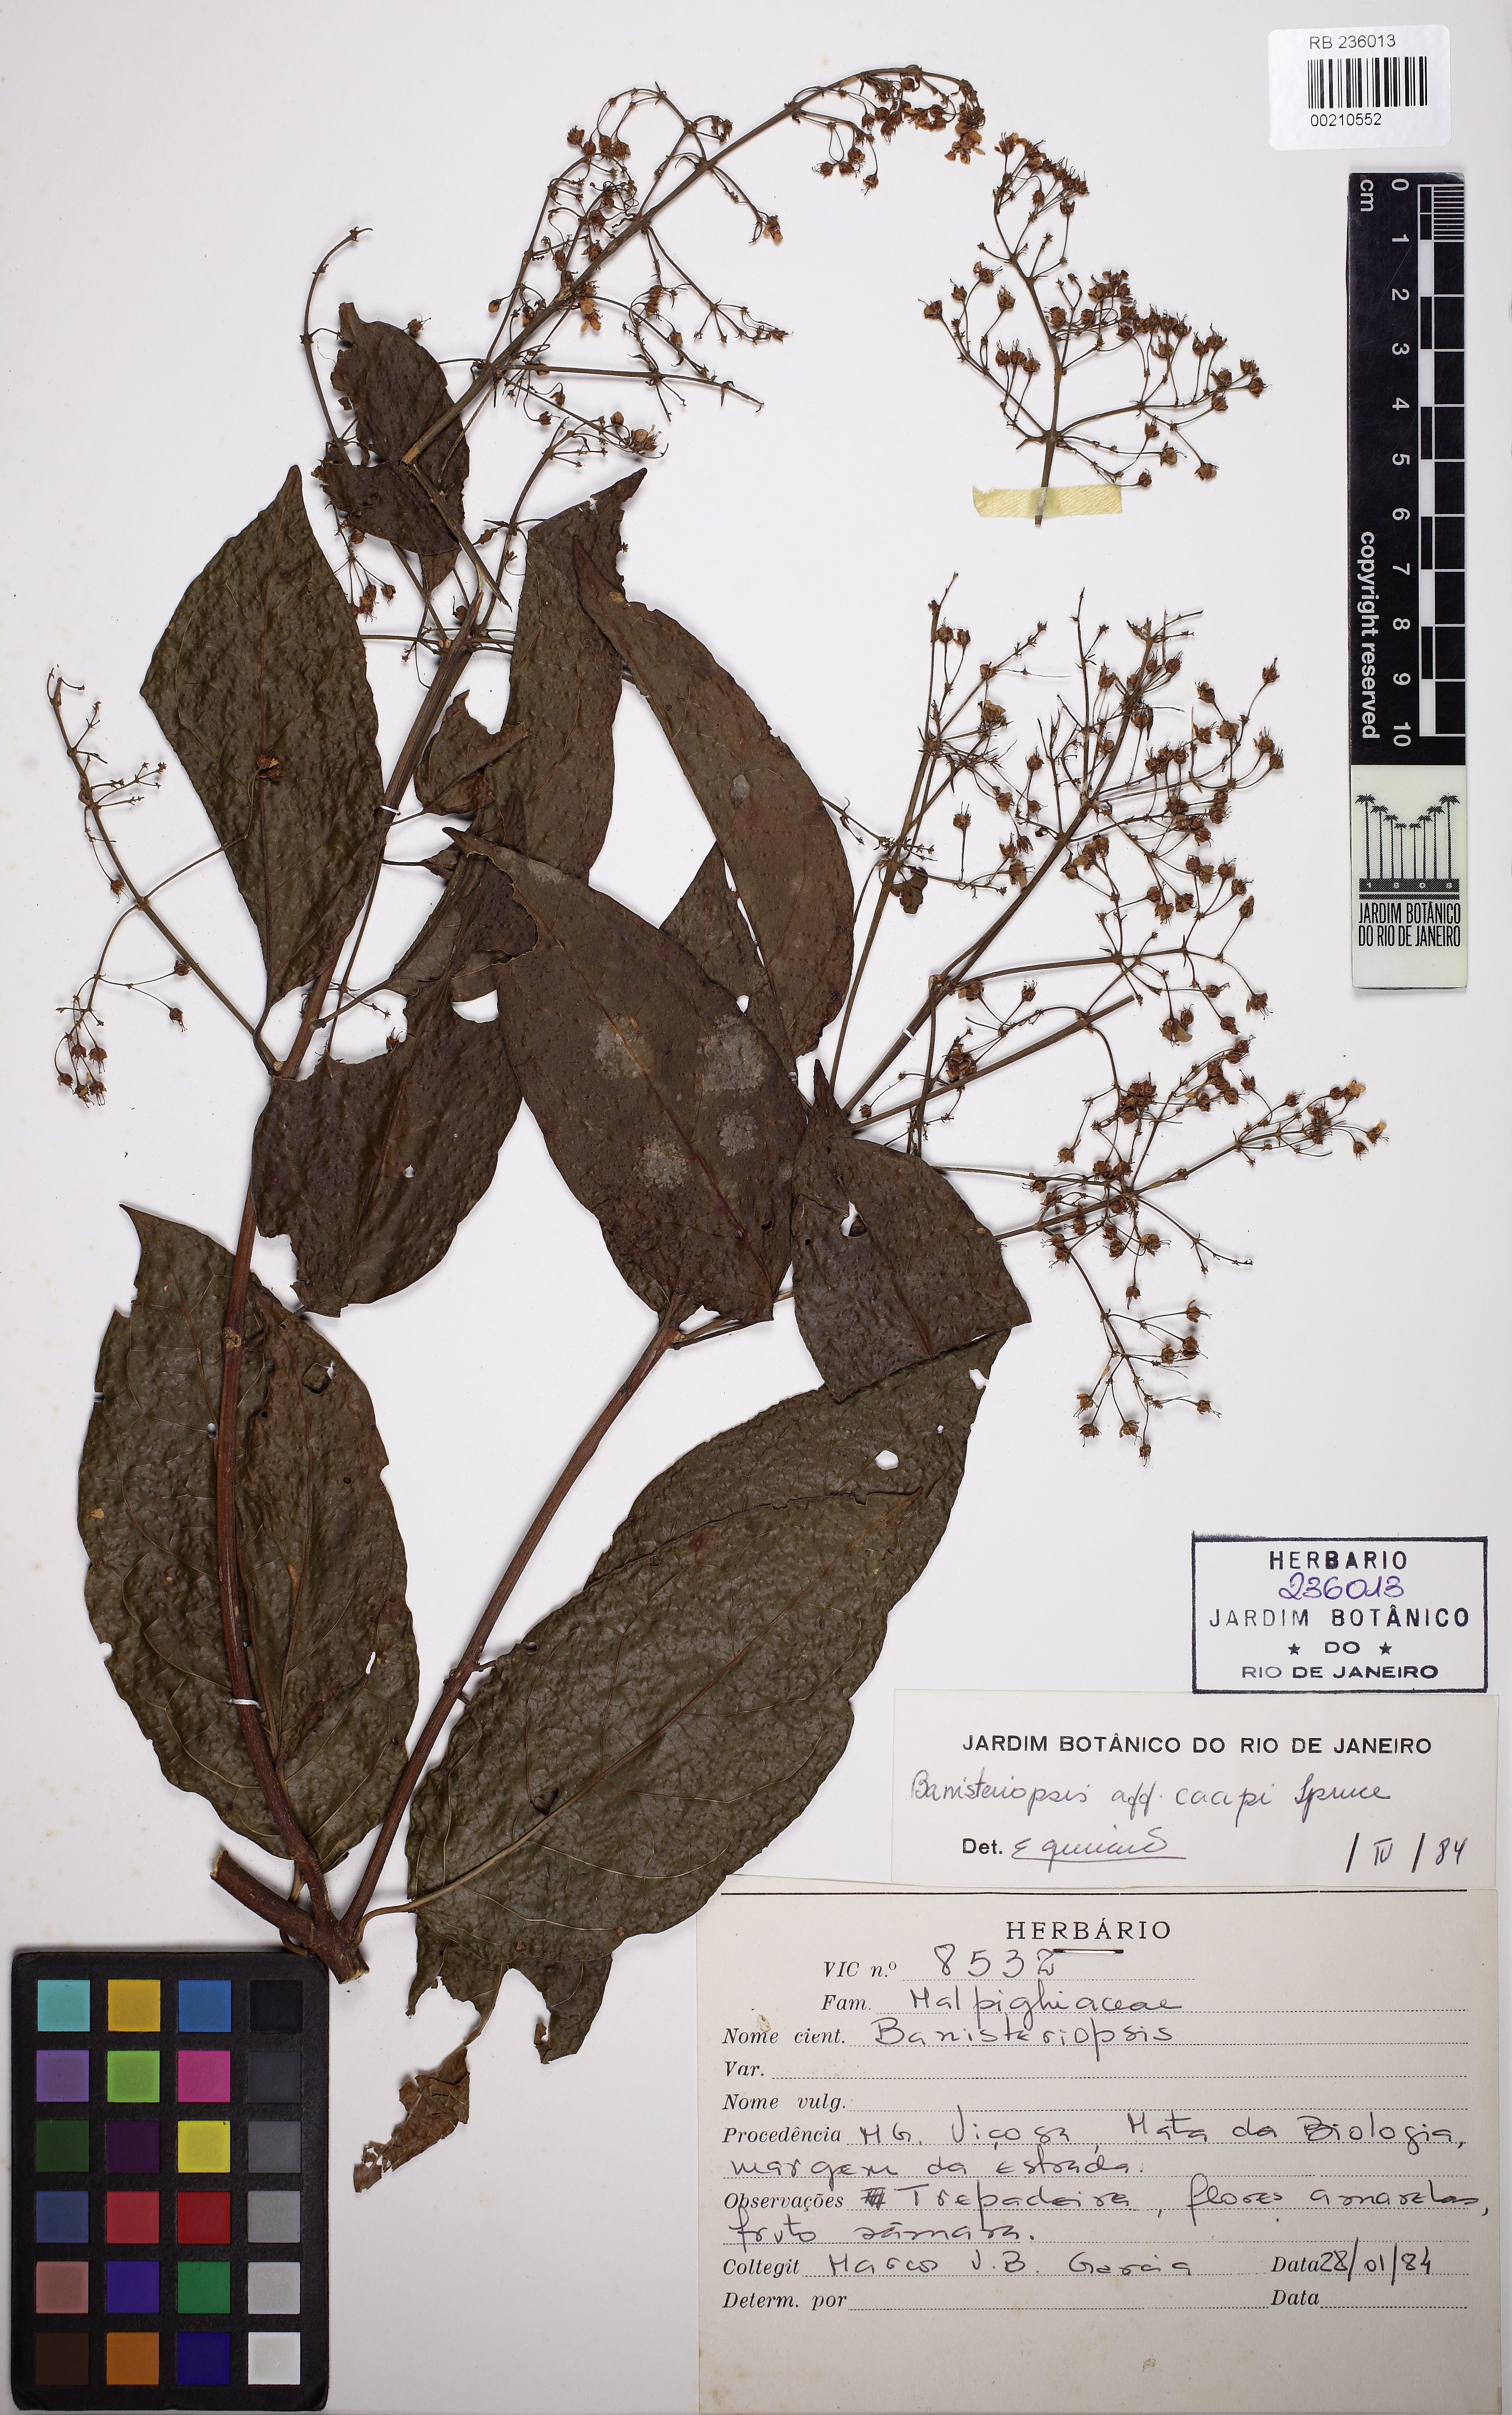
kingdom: Plantae
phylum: Tracheophyta
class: Magnoliopsida
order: Malpighiales
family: Malpighiaceae
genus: Banisteriopsis
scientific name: Banisteriopsis caapi
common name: Soulvine
